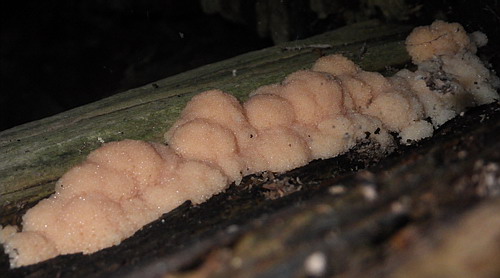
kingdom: Protozoa
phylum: Mycetozoa
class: Myxomycetes
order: Cribrariales
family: Tubiferaceae
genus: Tubifera
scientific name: Tubifera ferruginosa
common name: kanel-støvrør
